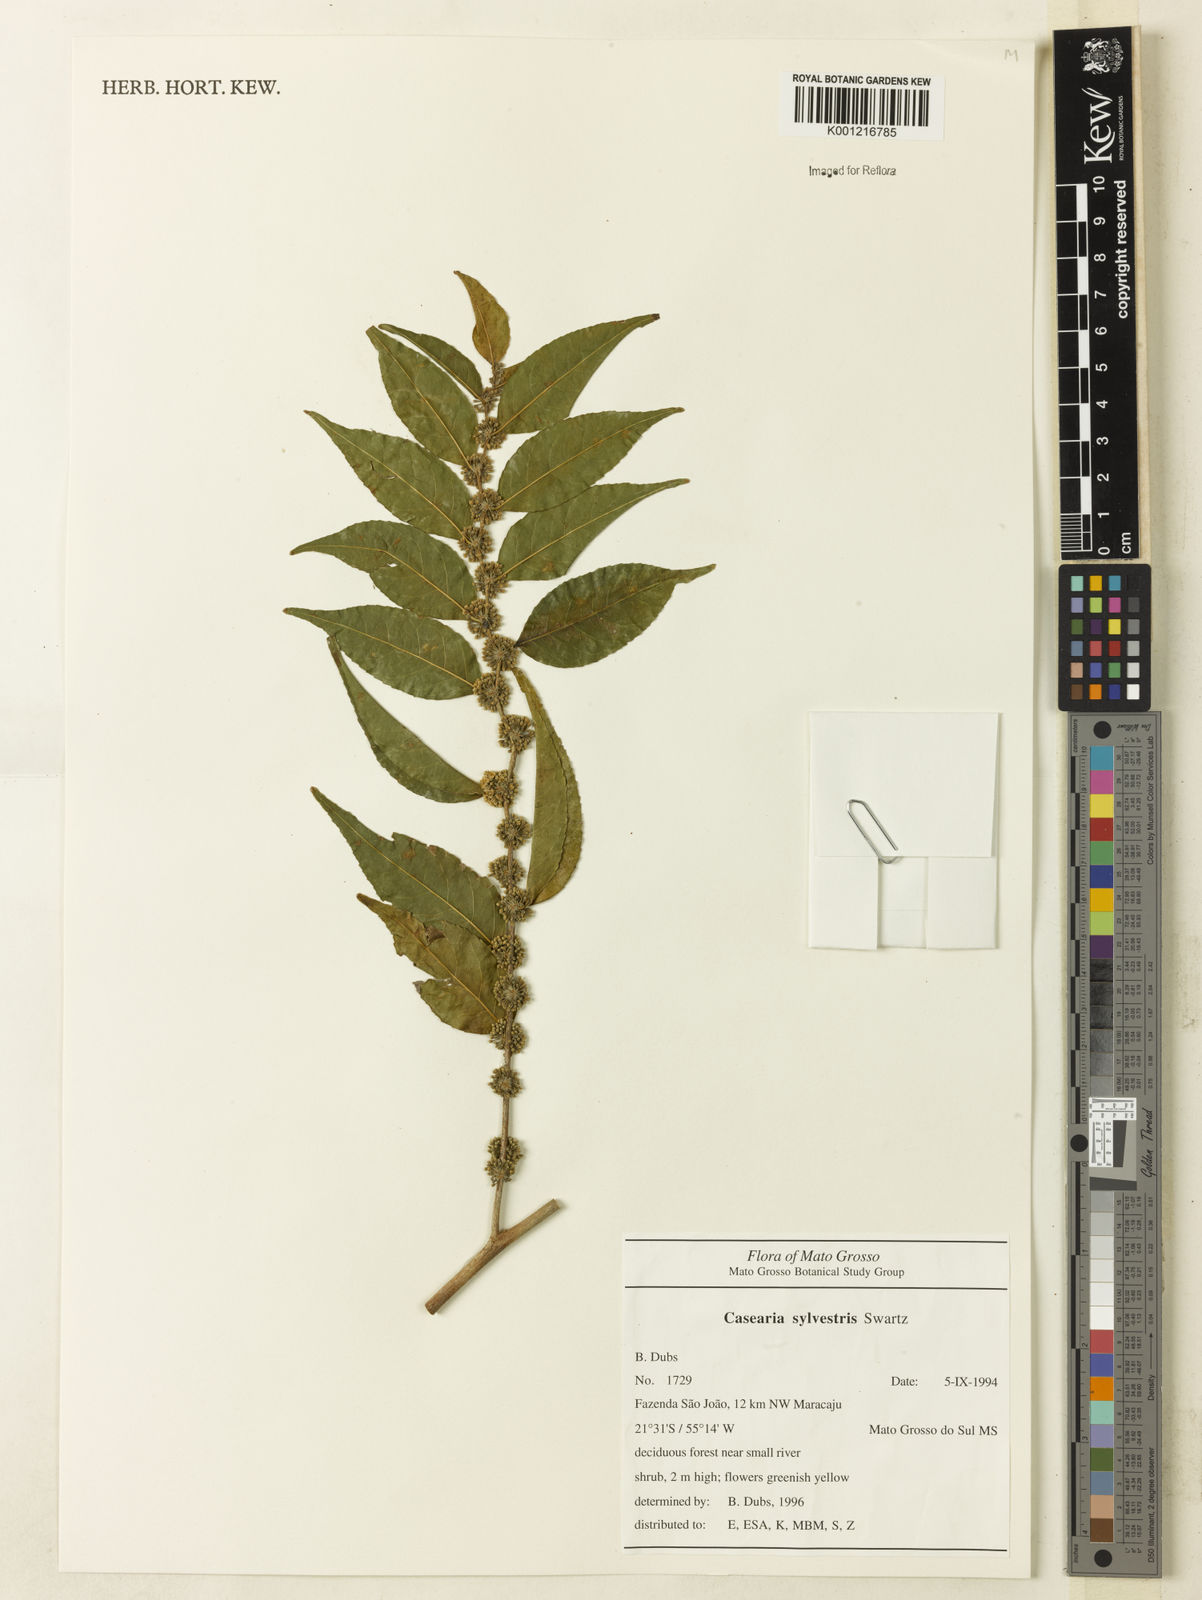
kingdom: Plantae
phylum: Tracheophyta
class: Magnoliopsida
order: Malpighiales
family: Salicaceae
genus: Casearia
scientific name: Casearia sylvestris
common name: Wild sage
